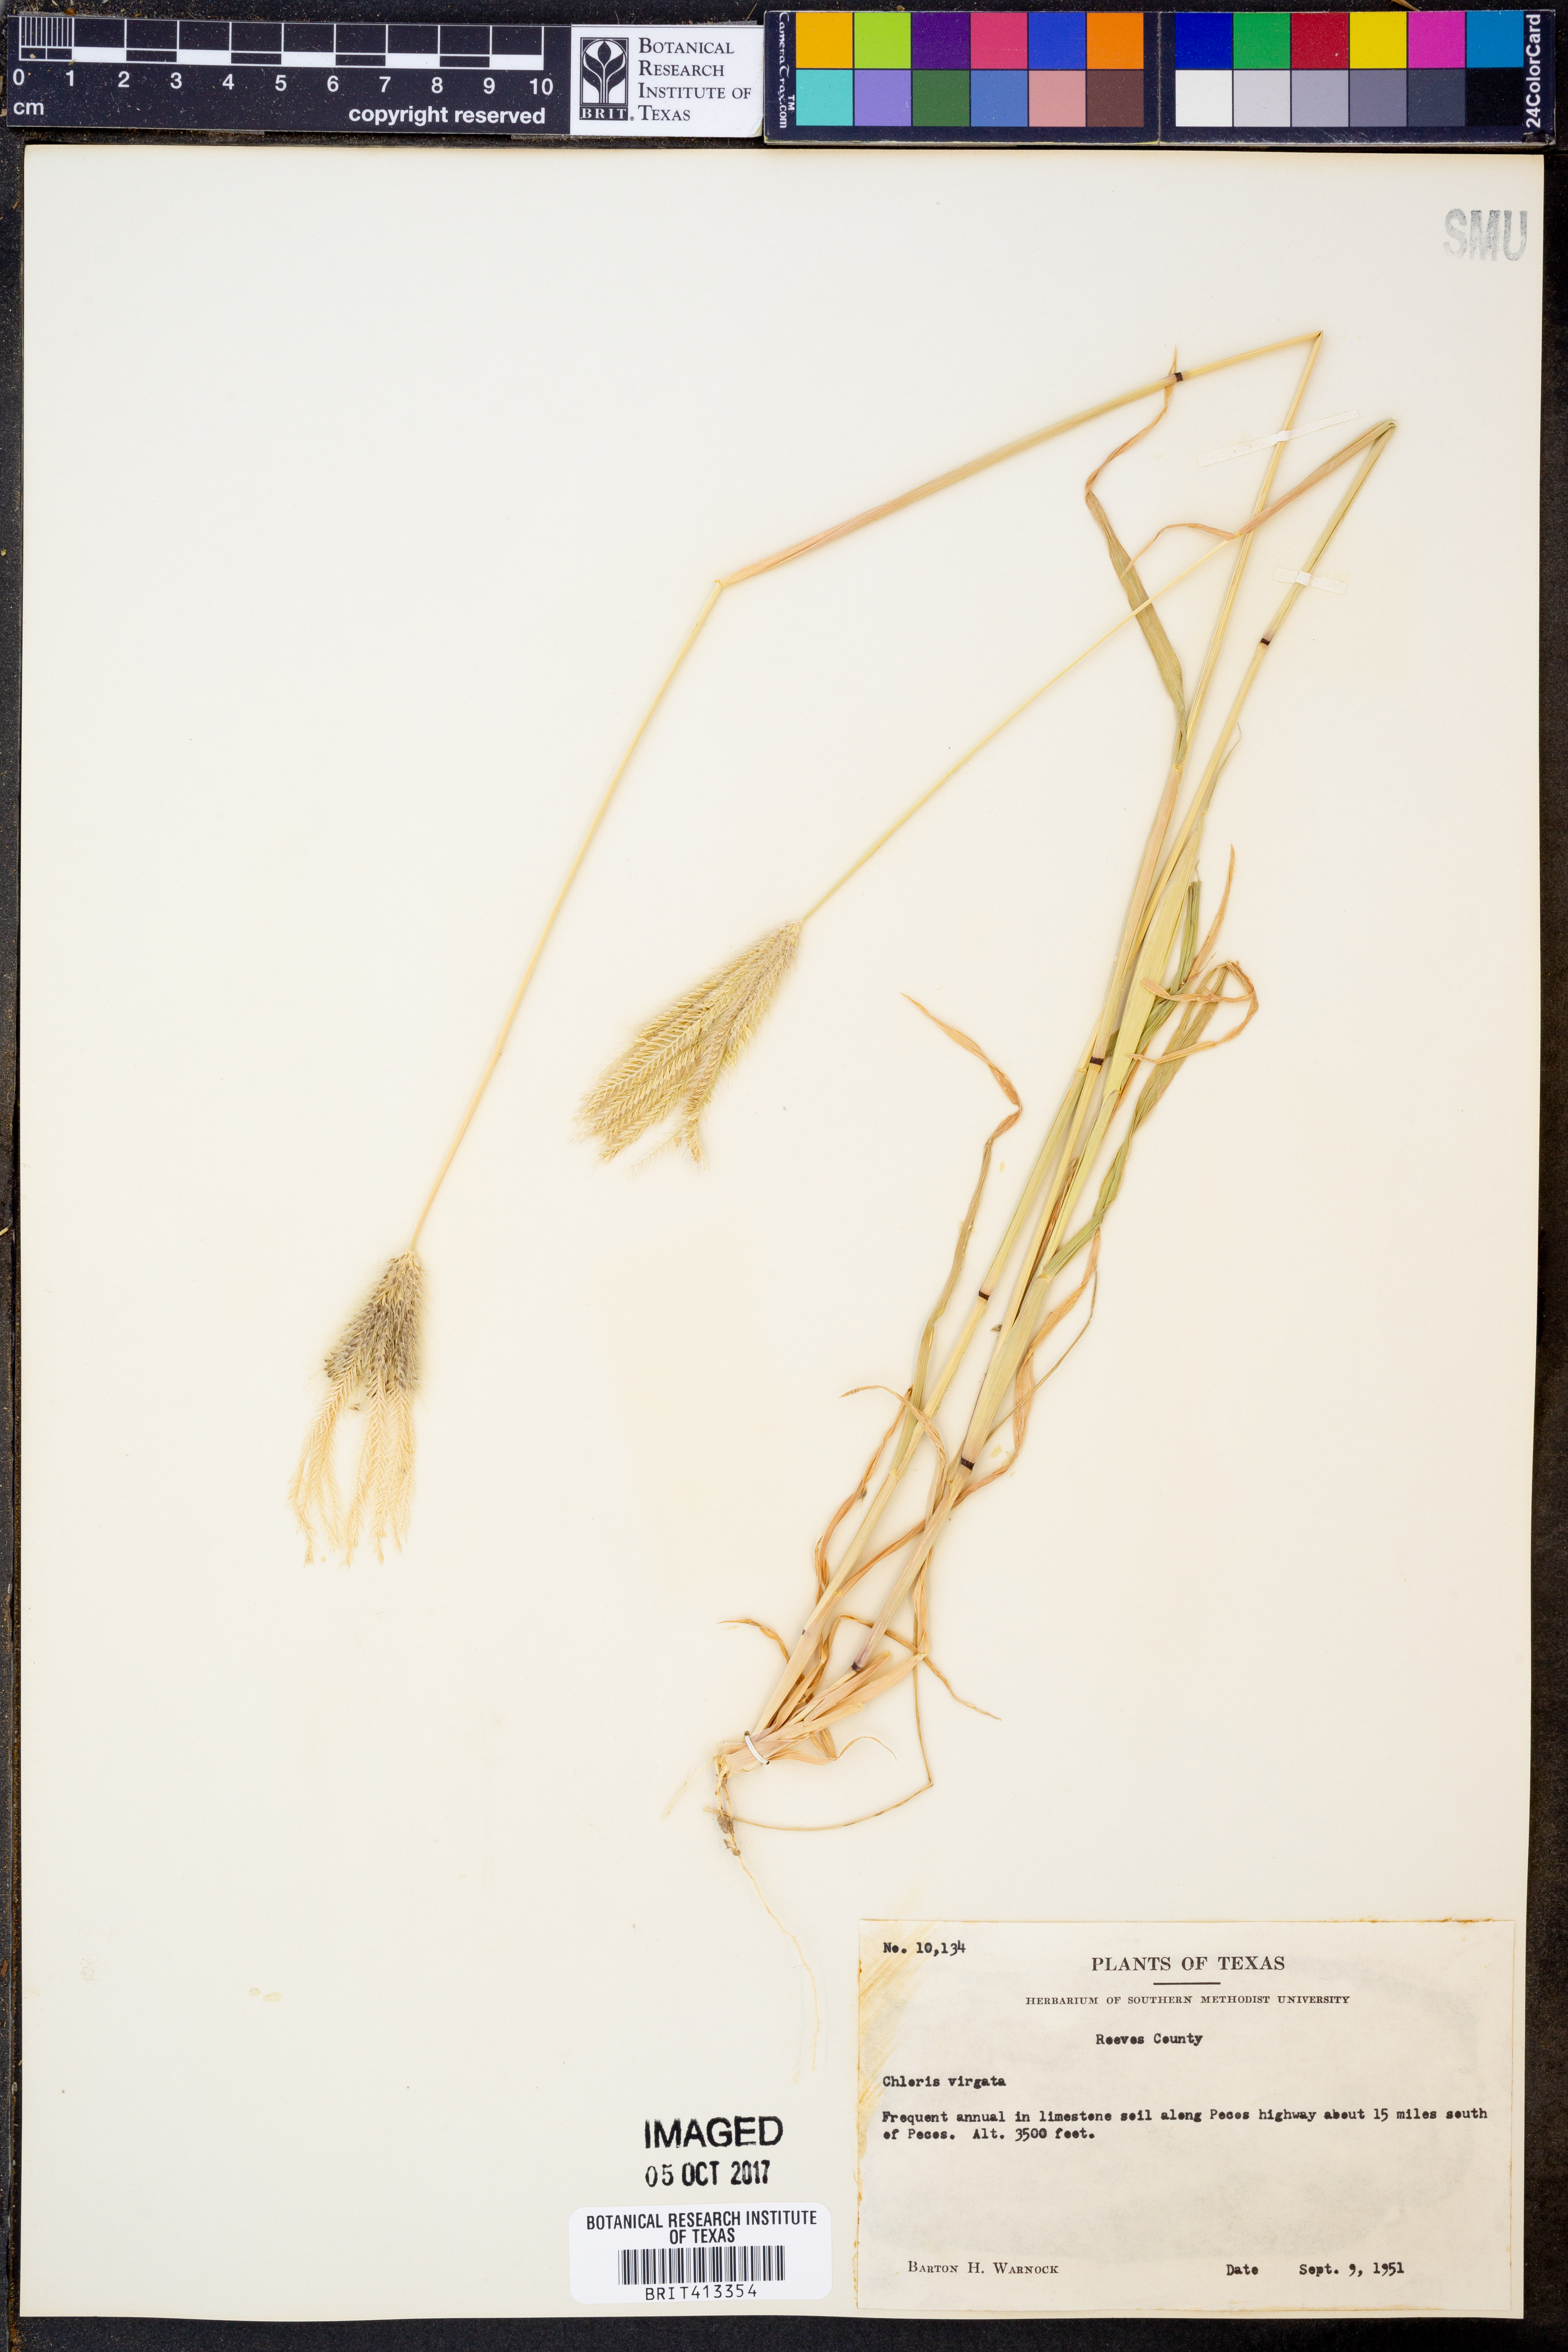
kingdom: Plantae
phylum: Tracheophyta
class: Liliopsida
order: Poales
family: Poaceae
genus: Chloris
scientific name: Chloris virgata
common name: Feathery rhodes-grass
